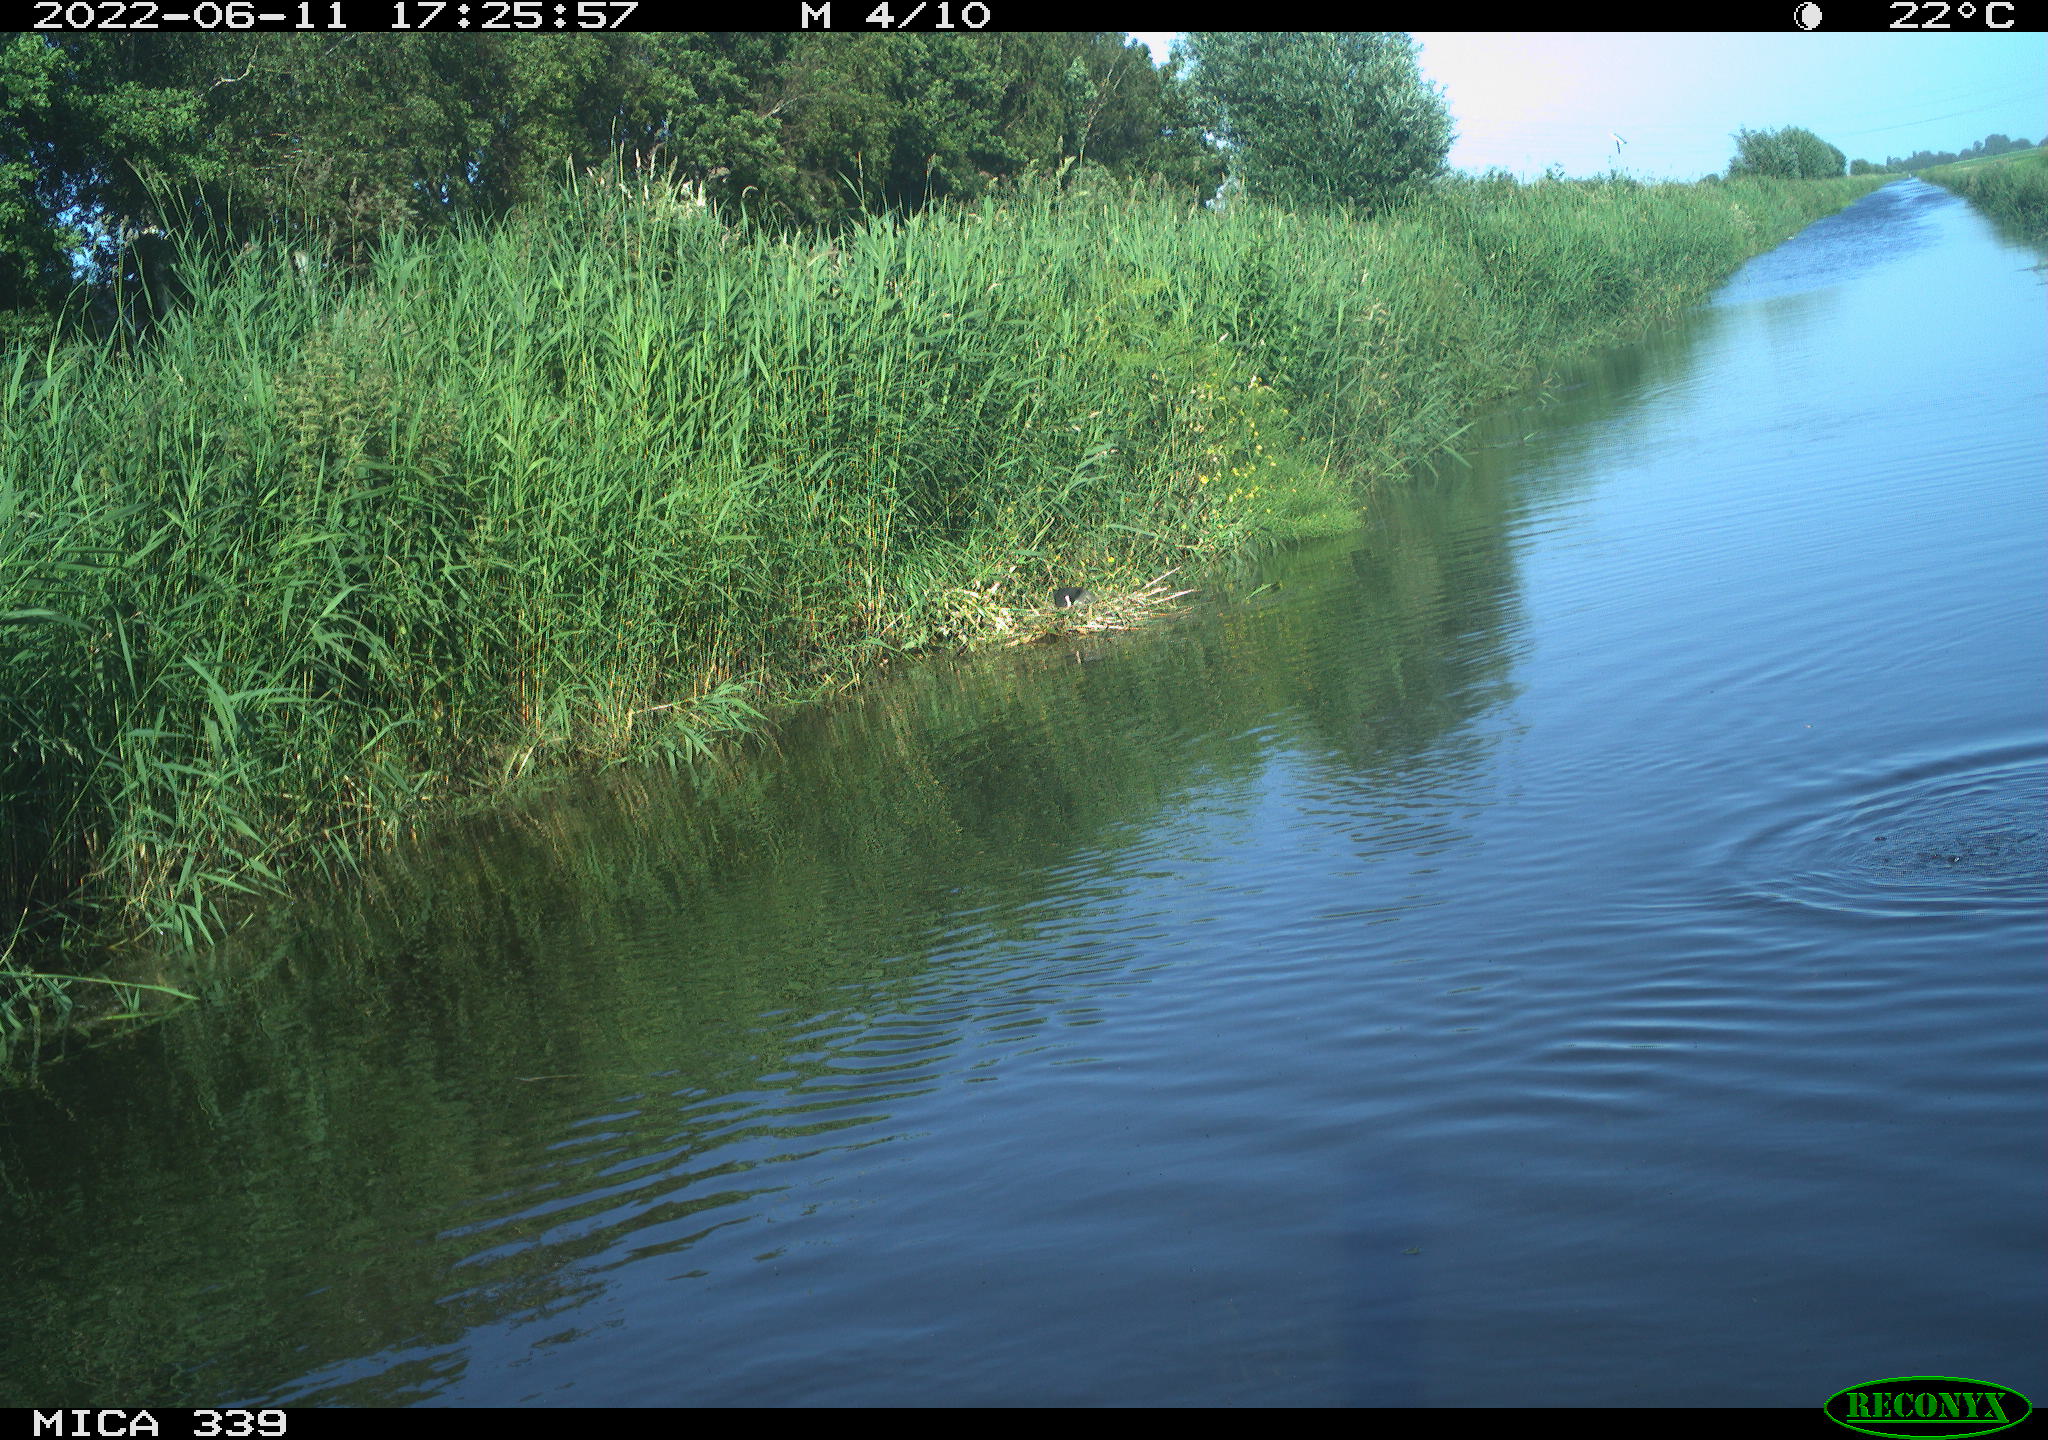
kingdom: Animalia
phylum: Chordata
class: Aves
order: Gruiformes
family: Rallidae
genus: Fulica
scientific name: Fulica atra
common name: Eurasian coot
